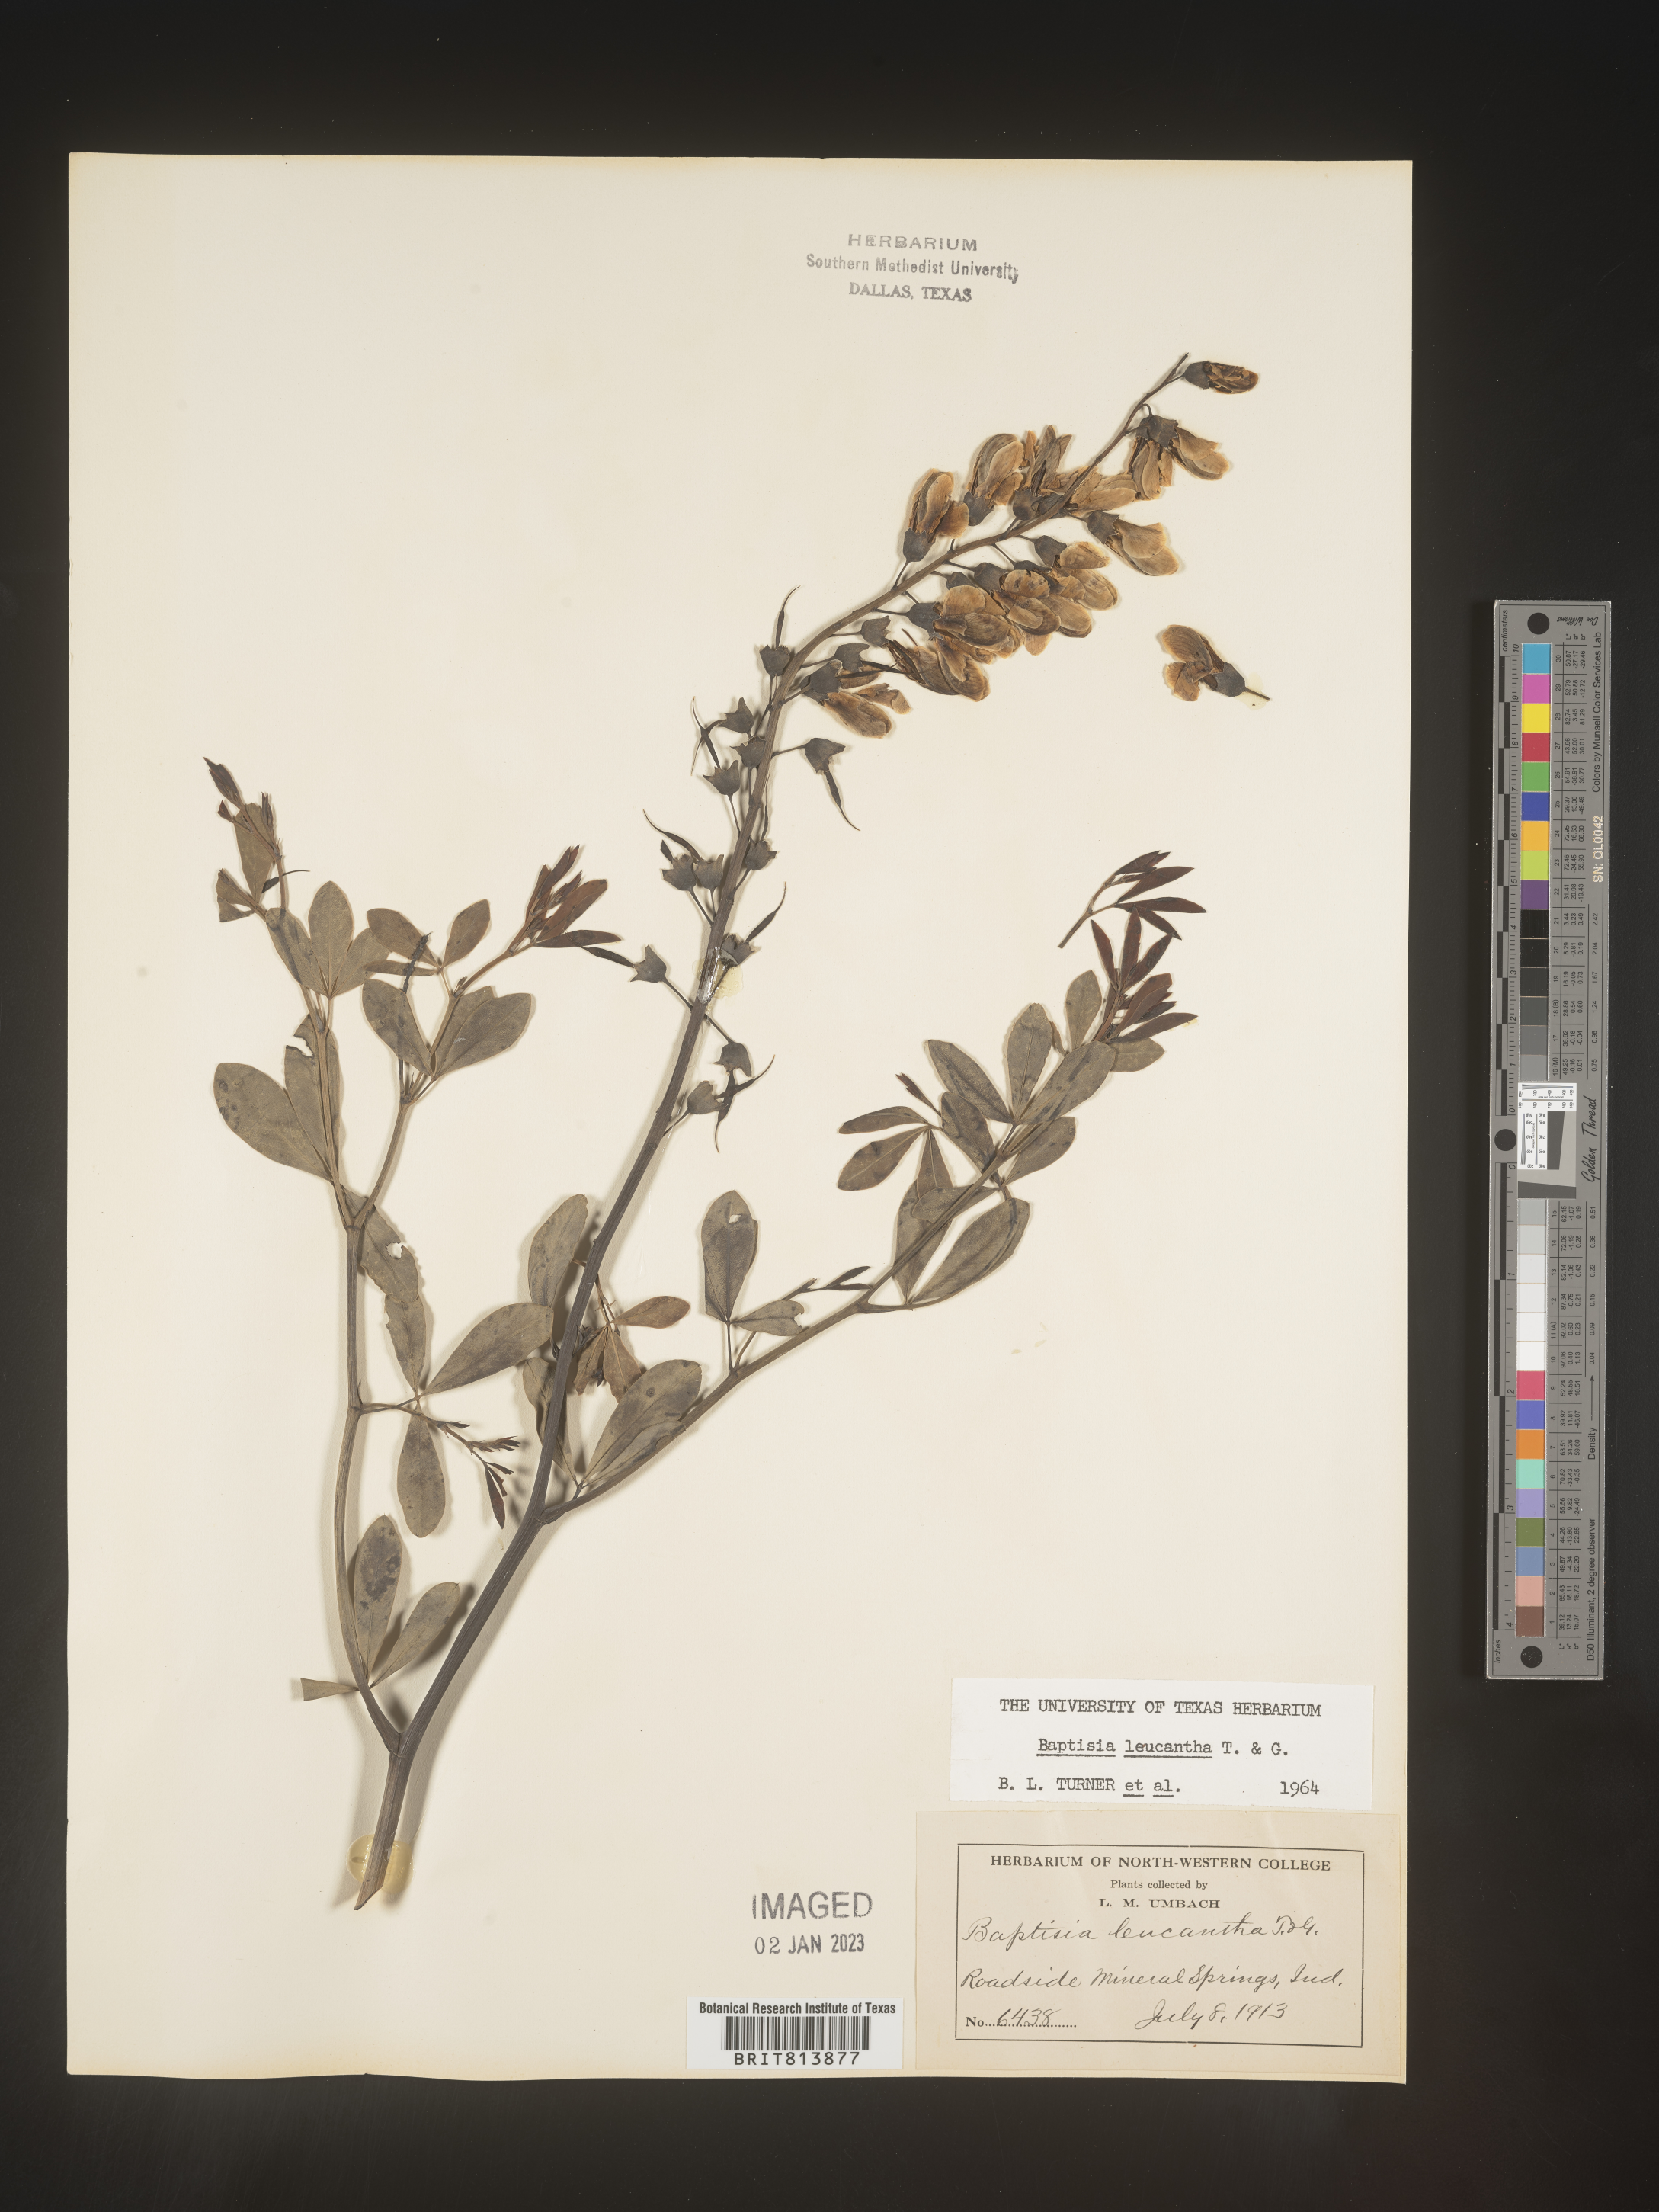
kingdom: Plantae
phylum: Tracheophyta
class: Magnoliopsida
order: Fabales
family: Fabaceae
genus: Baptisia
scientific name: Baptisia alba
